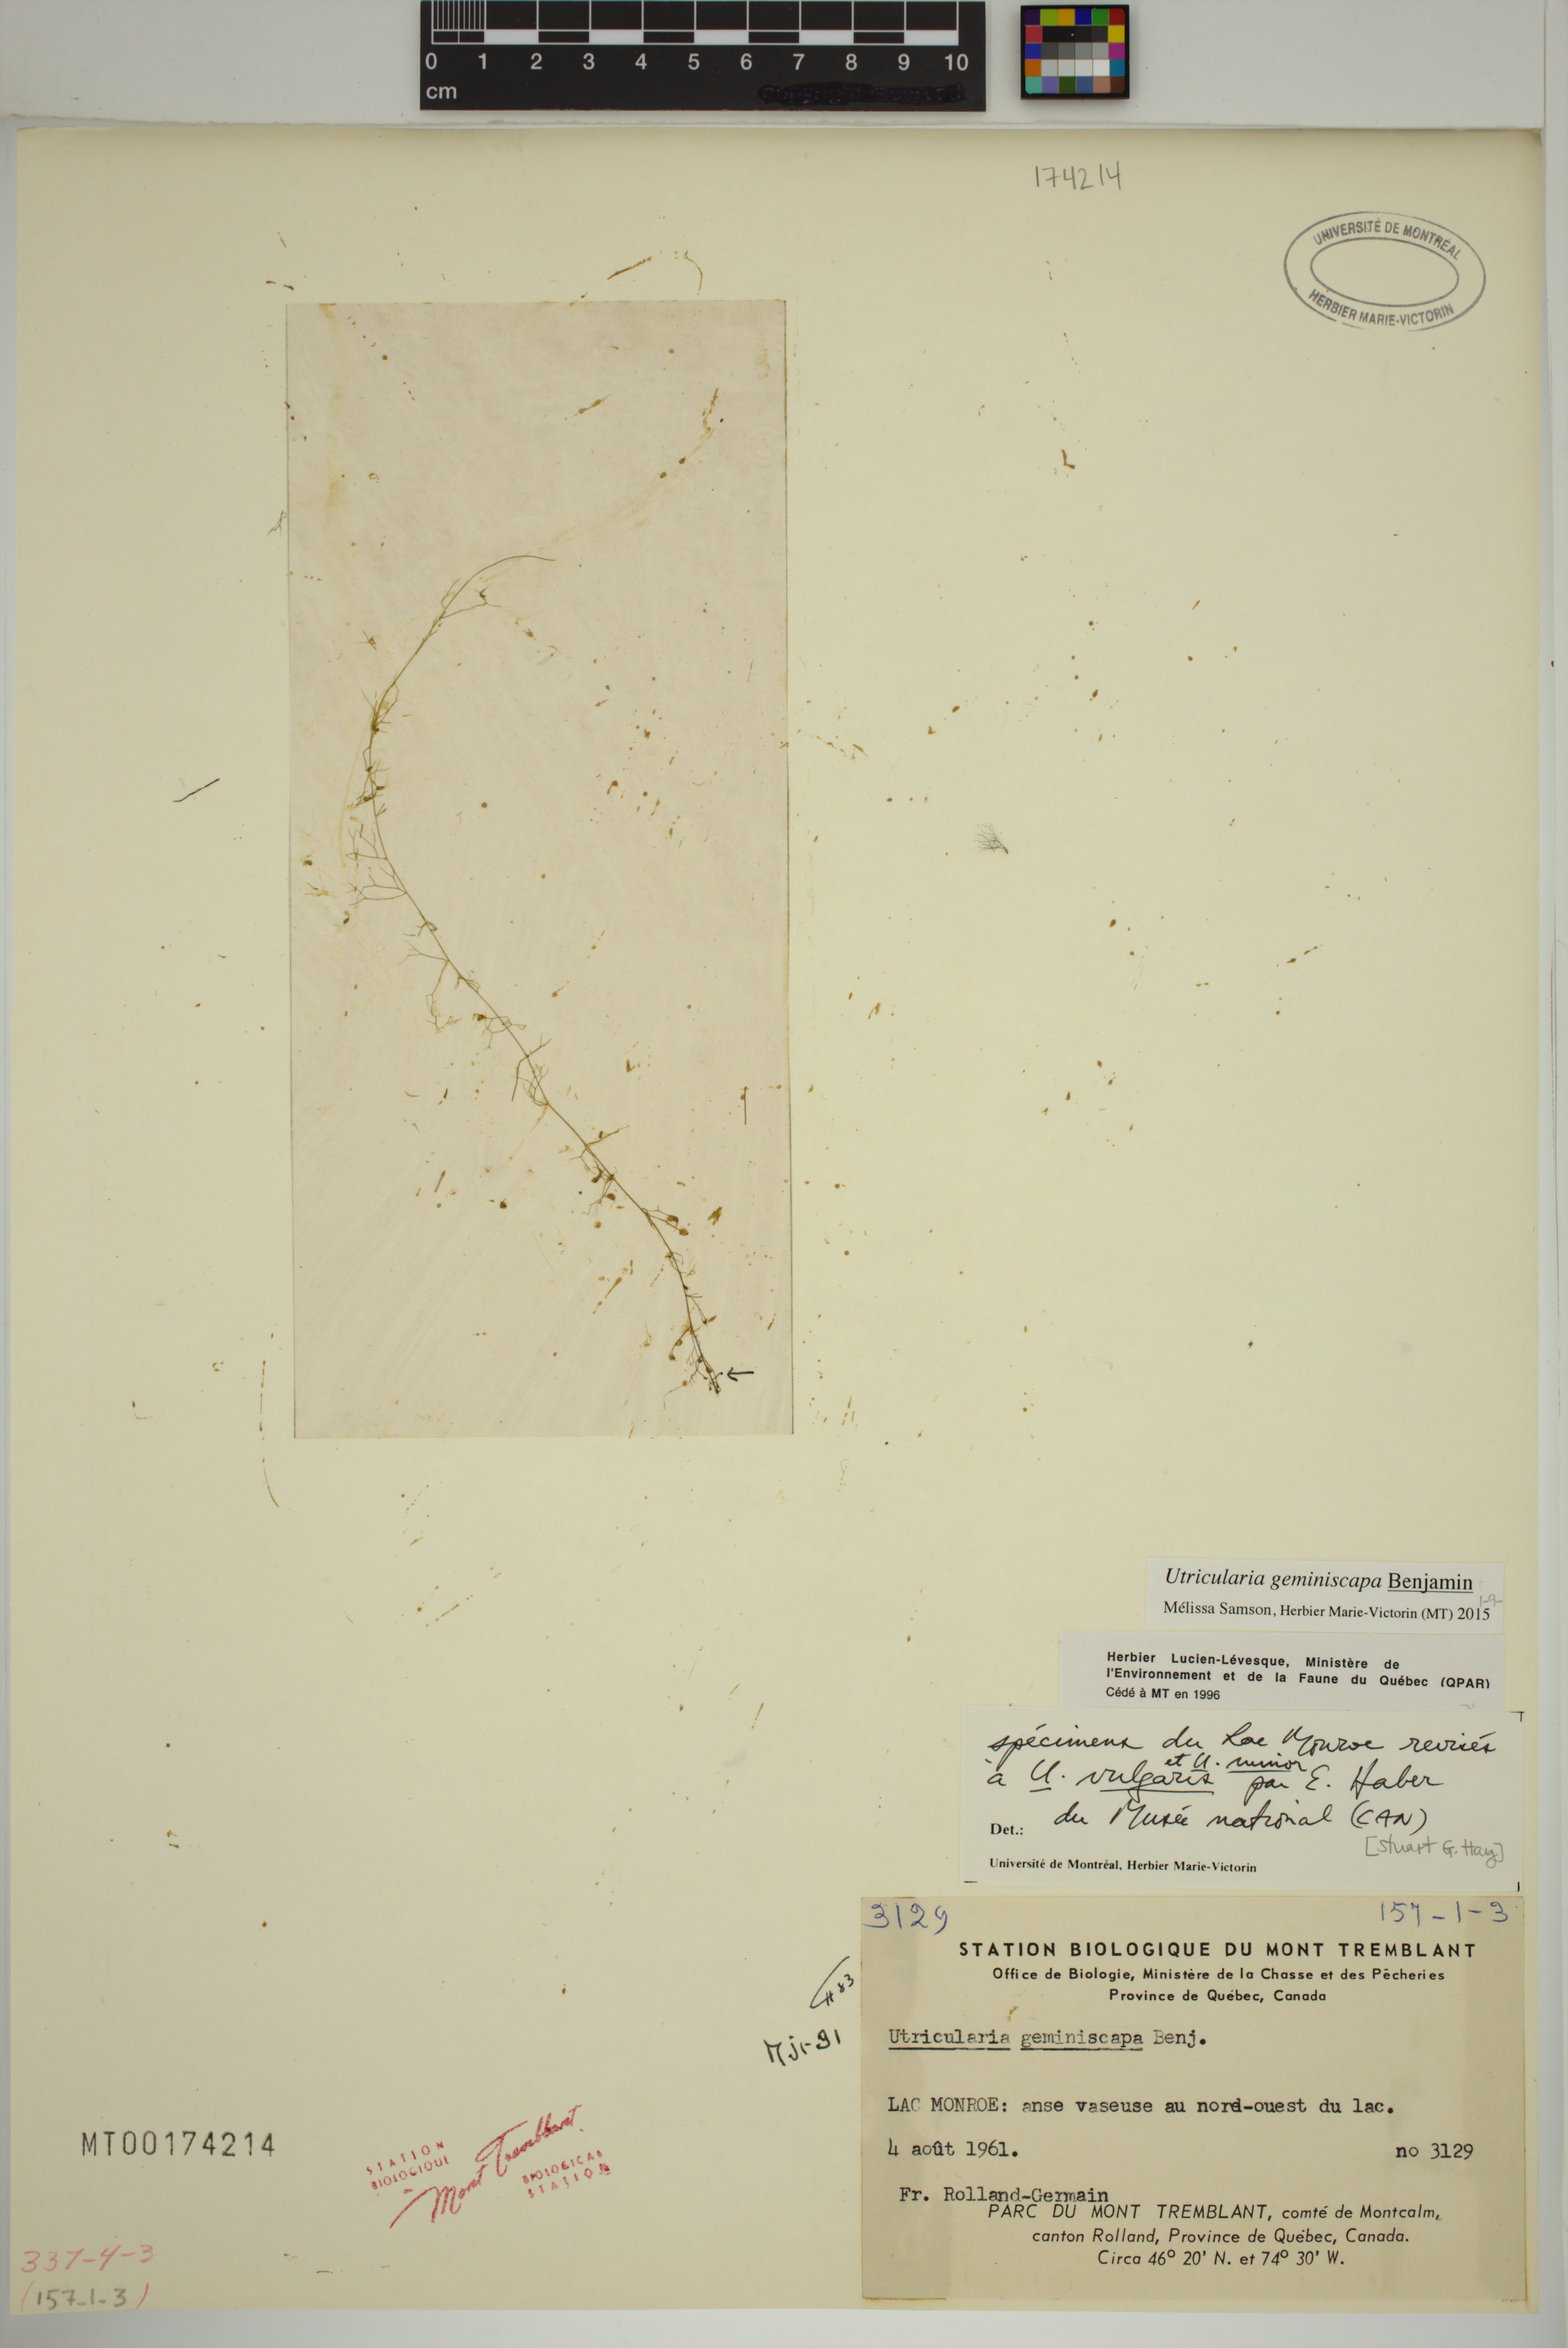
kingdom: Plantae
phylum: Tracheophyta
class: Magnoliopsida
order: Lamiales
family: Lentibulariaceae
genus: Utricularia
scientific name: Utricularia geminiscapa
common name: Hidden-fruit bladderwort
